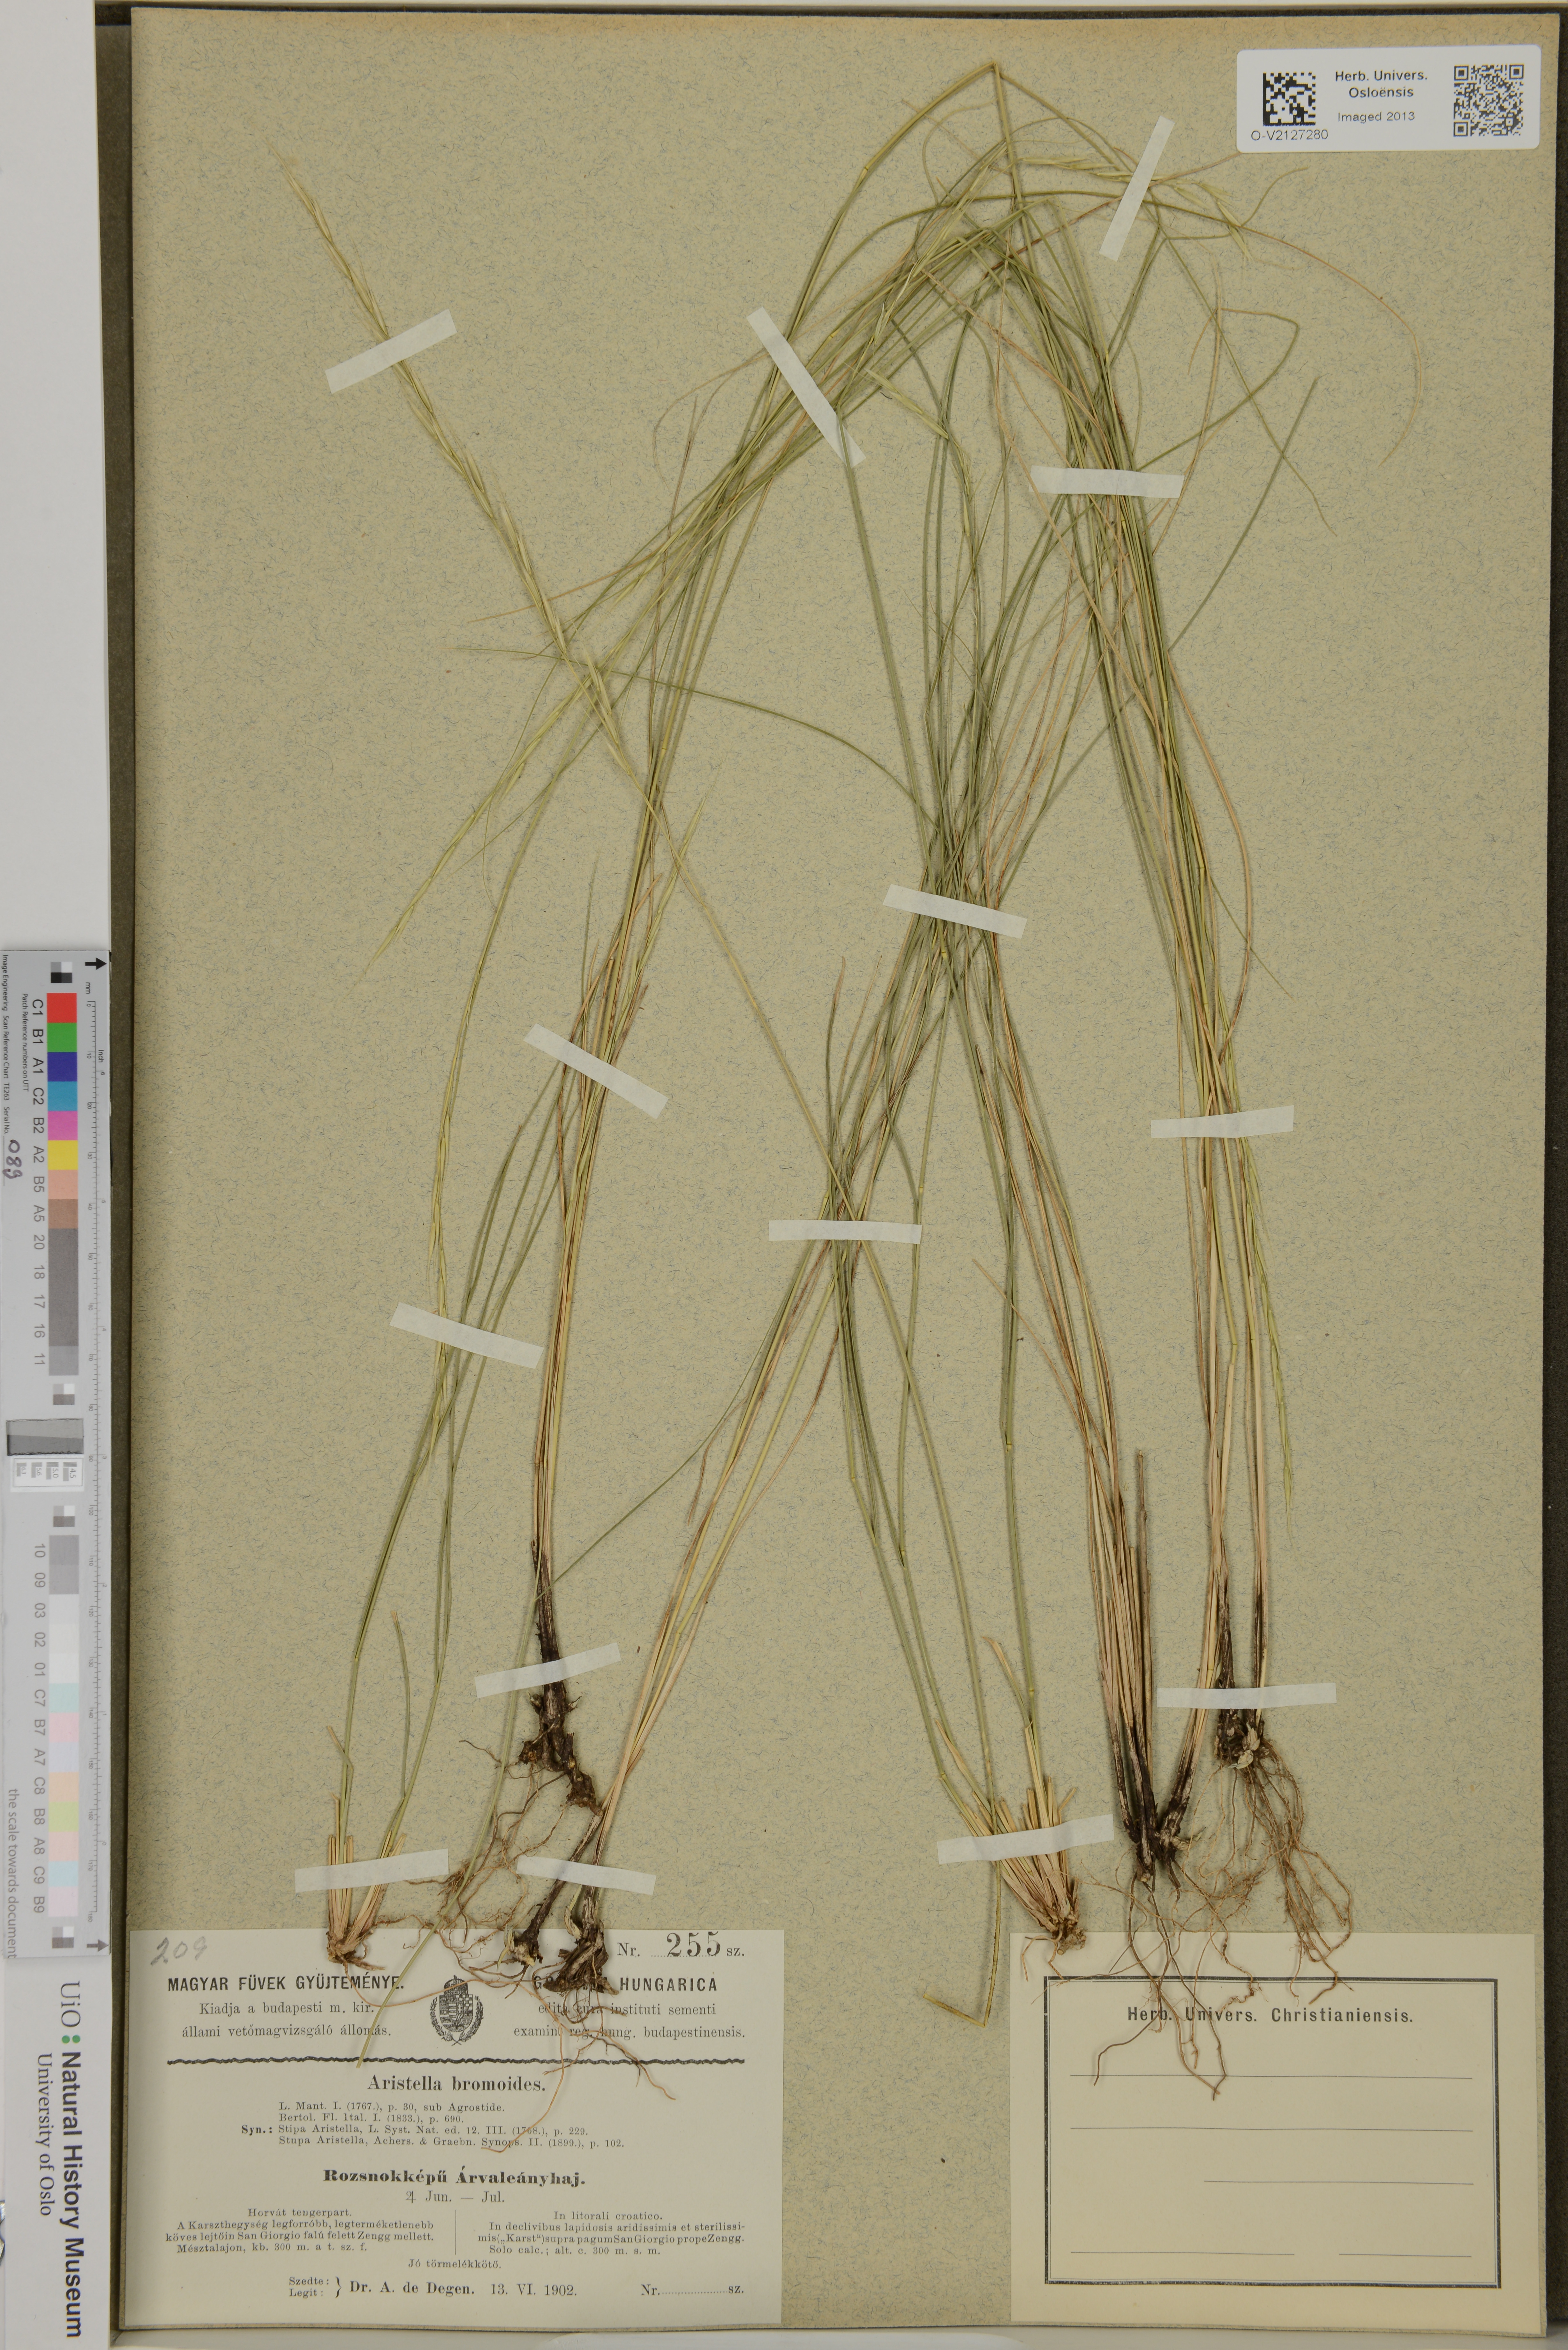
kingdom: Plantae
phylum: Tracheophyta
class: Liliopsida
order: Poales
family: Poaceae
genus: Achnatherum
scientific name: Achnatherum bromoides
